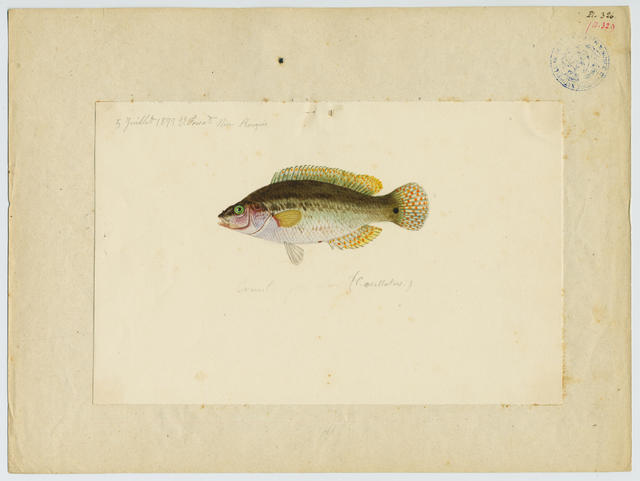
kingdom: Animalia
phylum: Chordata
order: Perciformes
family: Labridae
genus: Symphodus
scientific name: Symphodus mediterraneus
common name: Axillary wrasse
